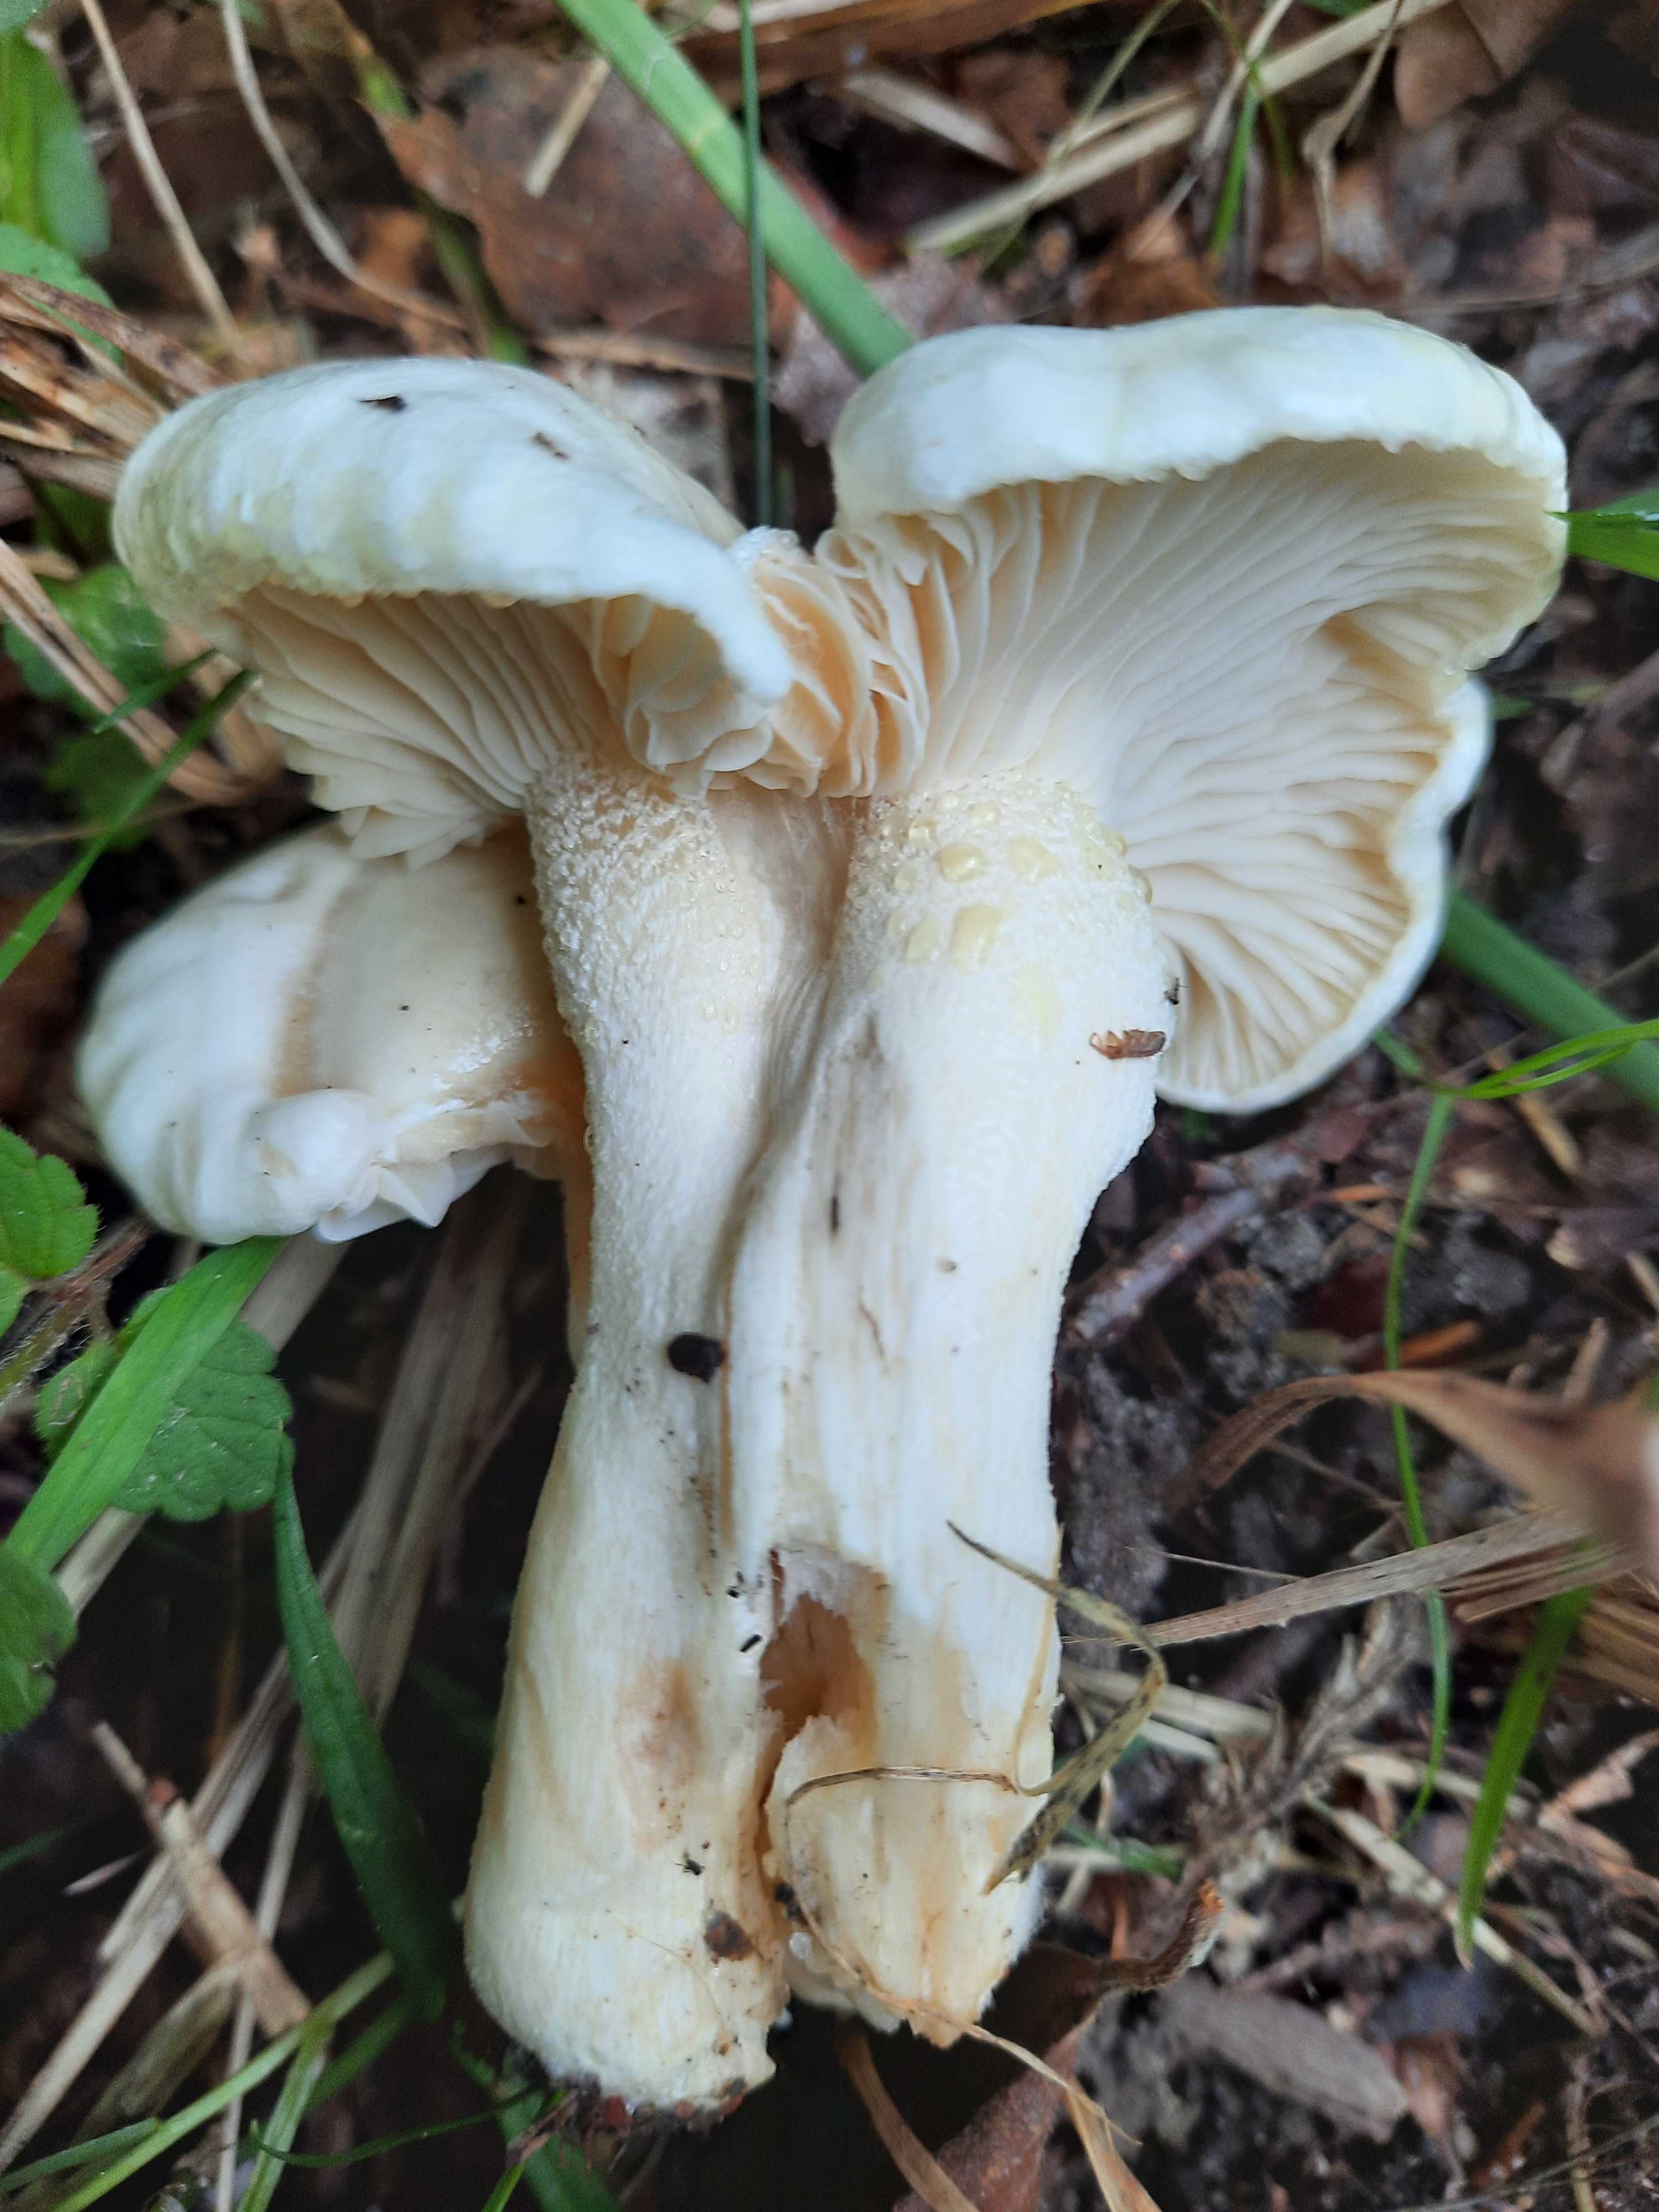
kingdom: Fungi
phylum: Basidiomycota
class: Agaricomycetes
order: Agaricales
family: Hygrophoraceae
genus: Hygrophorus
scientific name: Hygrophorus
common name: sneglehat
